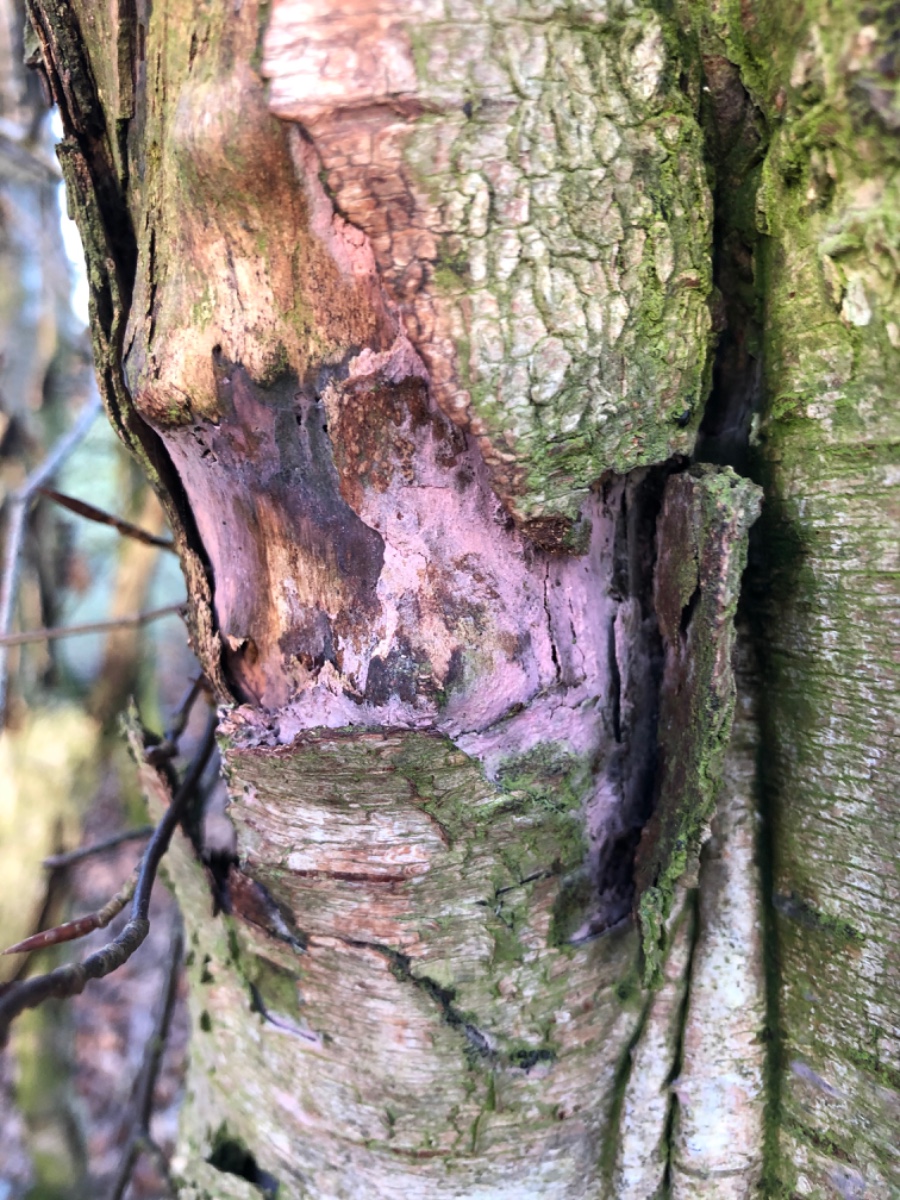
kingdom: Fungi
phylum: Basidiomycota
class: Agaricomycetes
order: Cantharellales
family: Tulasnellaceae
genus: Tulasnella
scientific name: Tulasnella violea
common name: violet ballonhinde
